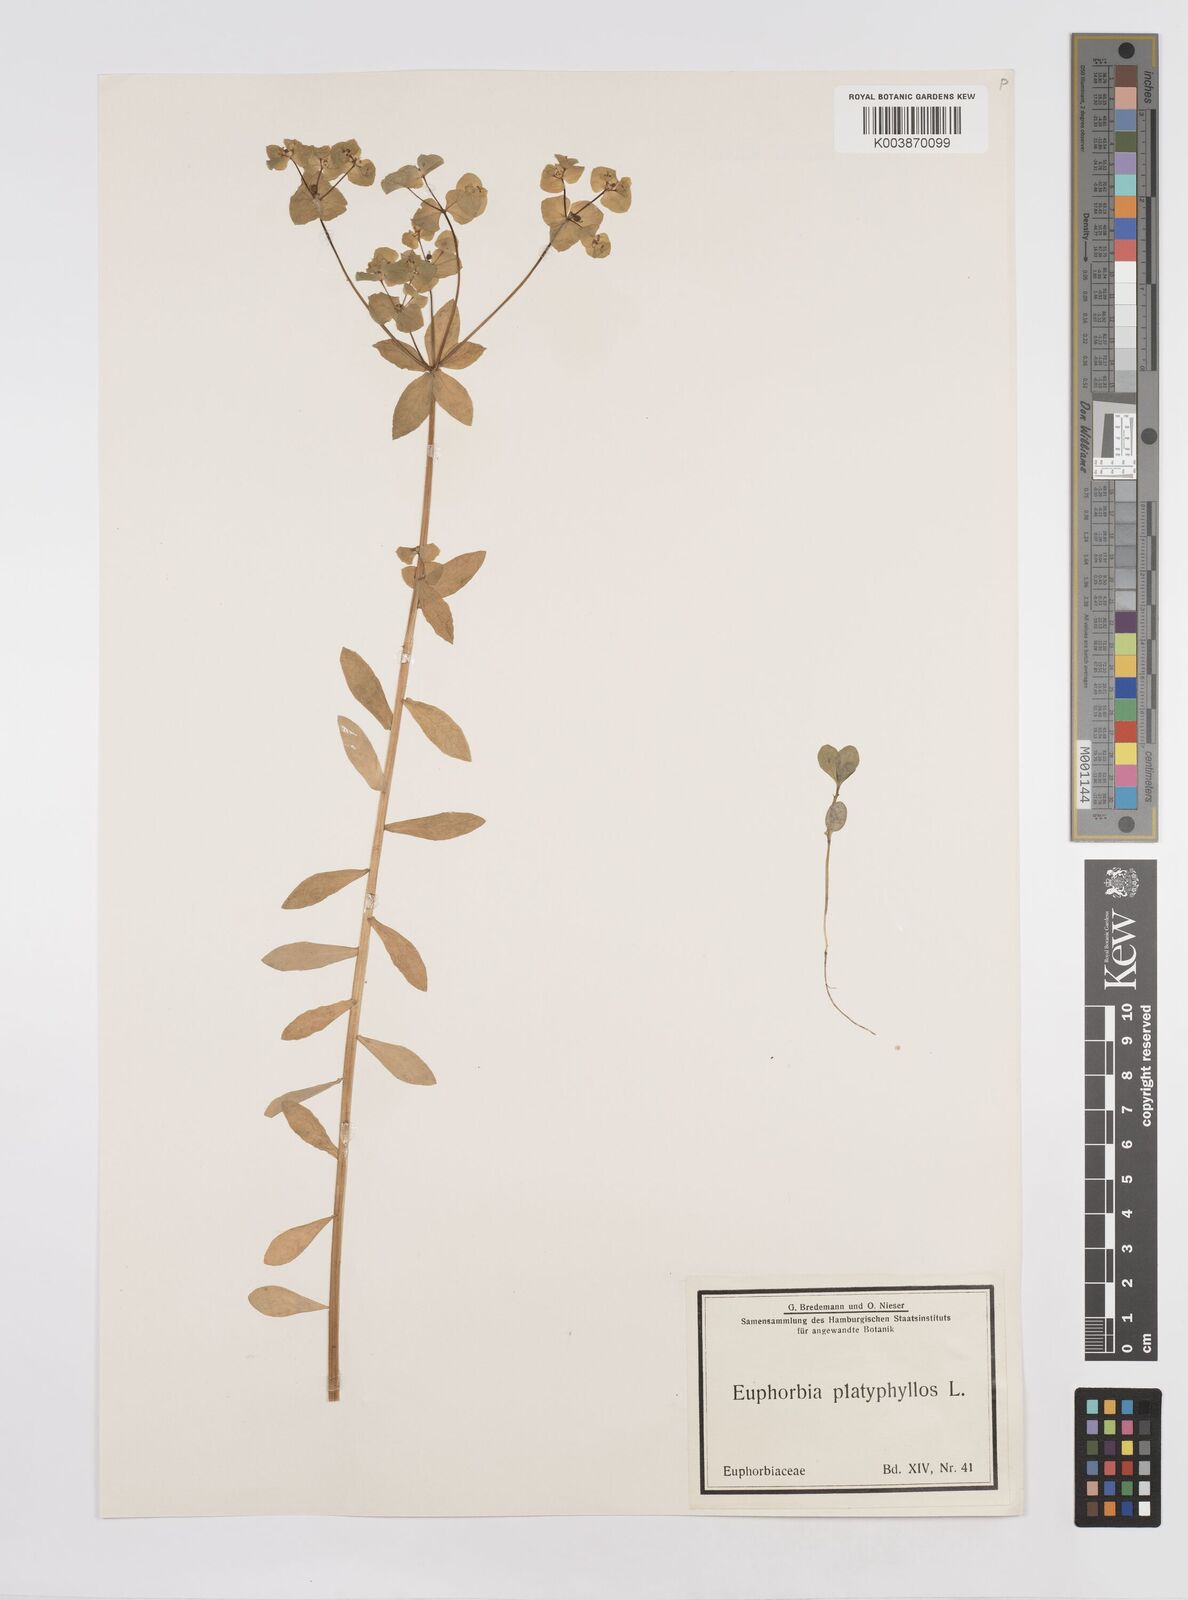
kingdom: Plantae
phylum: Tracheophyta
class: Magnoliopsida
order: Malpighiales
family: Euphorbiaceae
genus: Euphorbia
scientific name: Euphorbia platyphyllos
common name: Broad-leaved spurge
